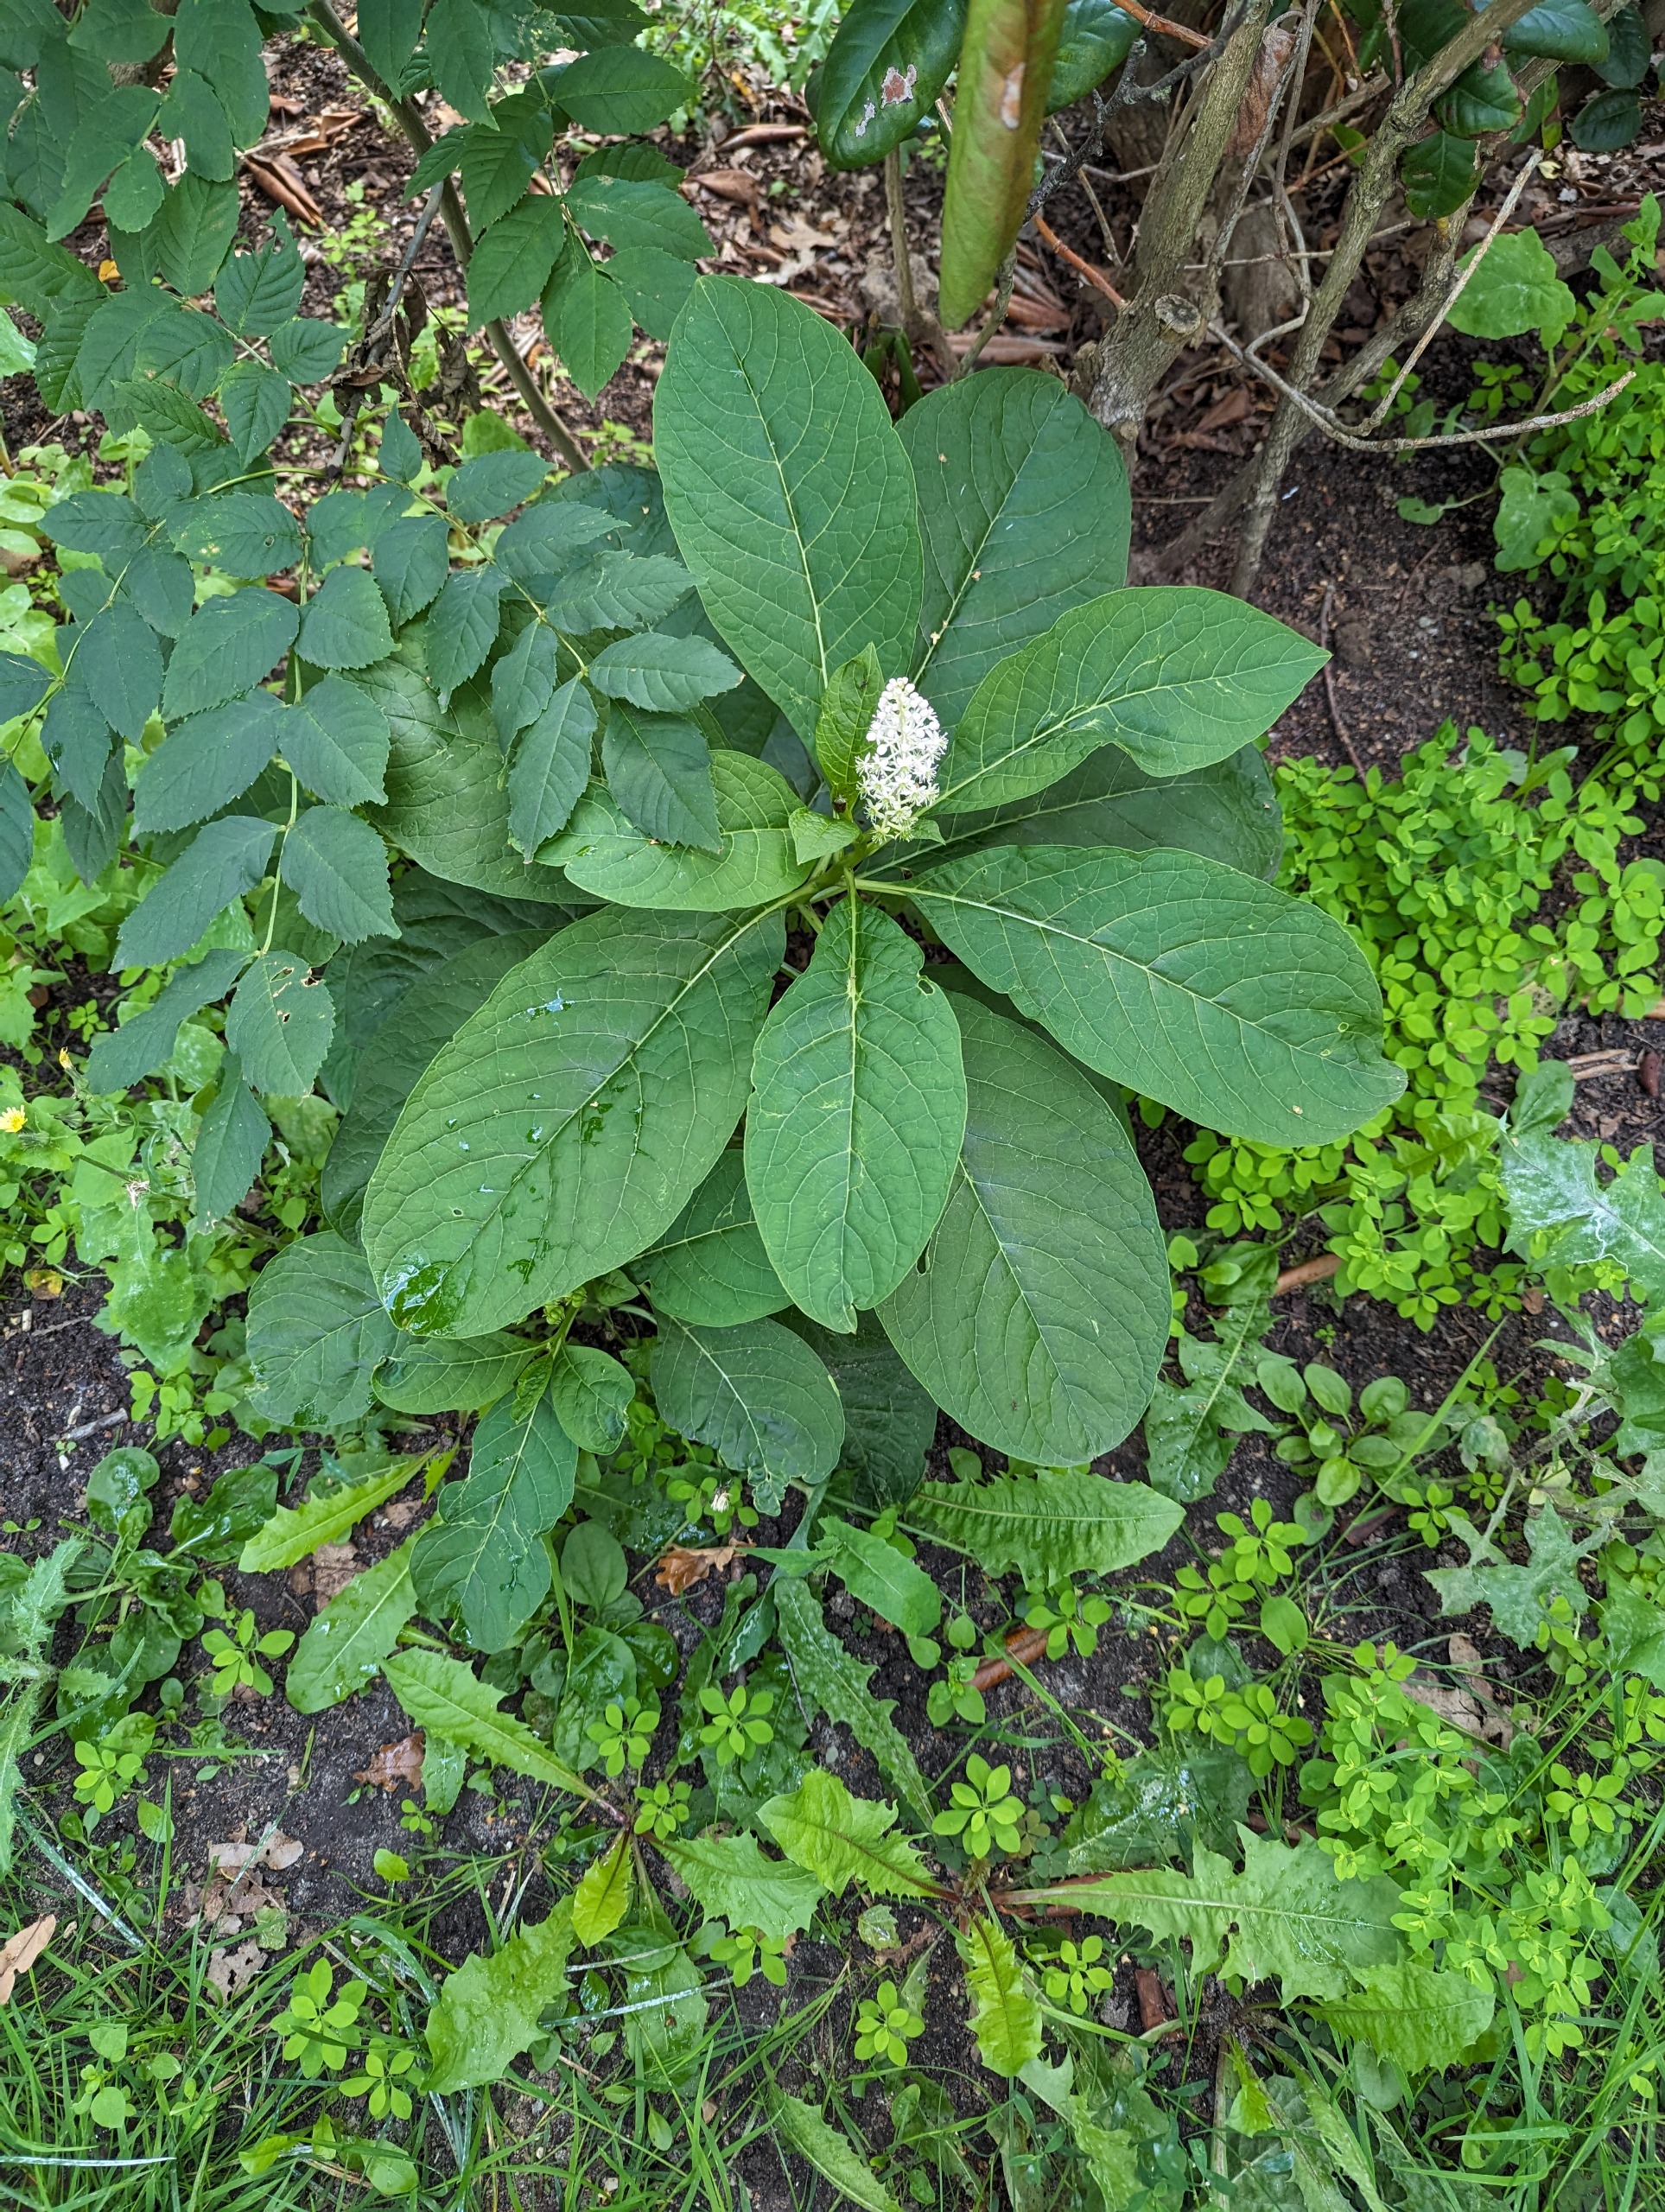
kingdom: Plantae
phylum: Tracheophyta
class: Magnoliopsida
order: Caryophyllales
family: Phytolaccaceae
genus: Phytolacca
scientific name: Phytolacca acinosa
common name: Asiatisk kermesbær
